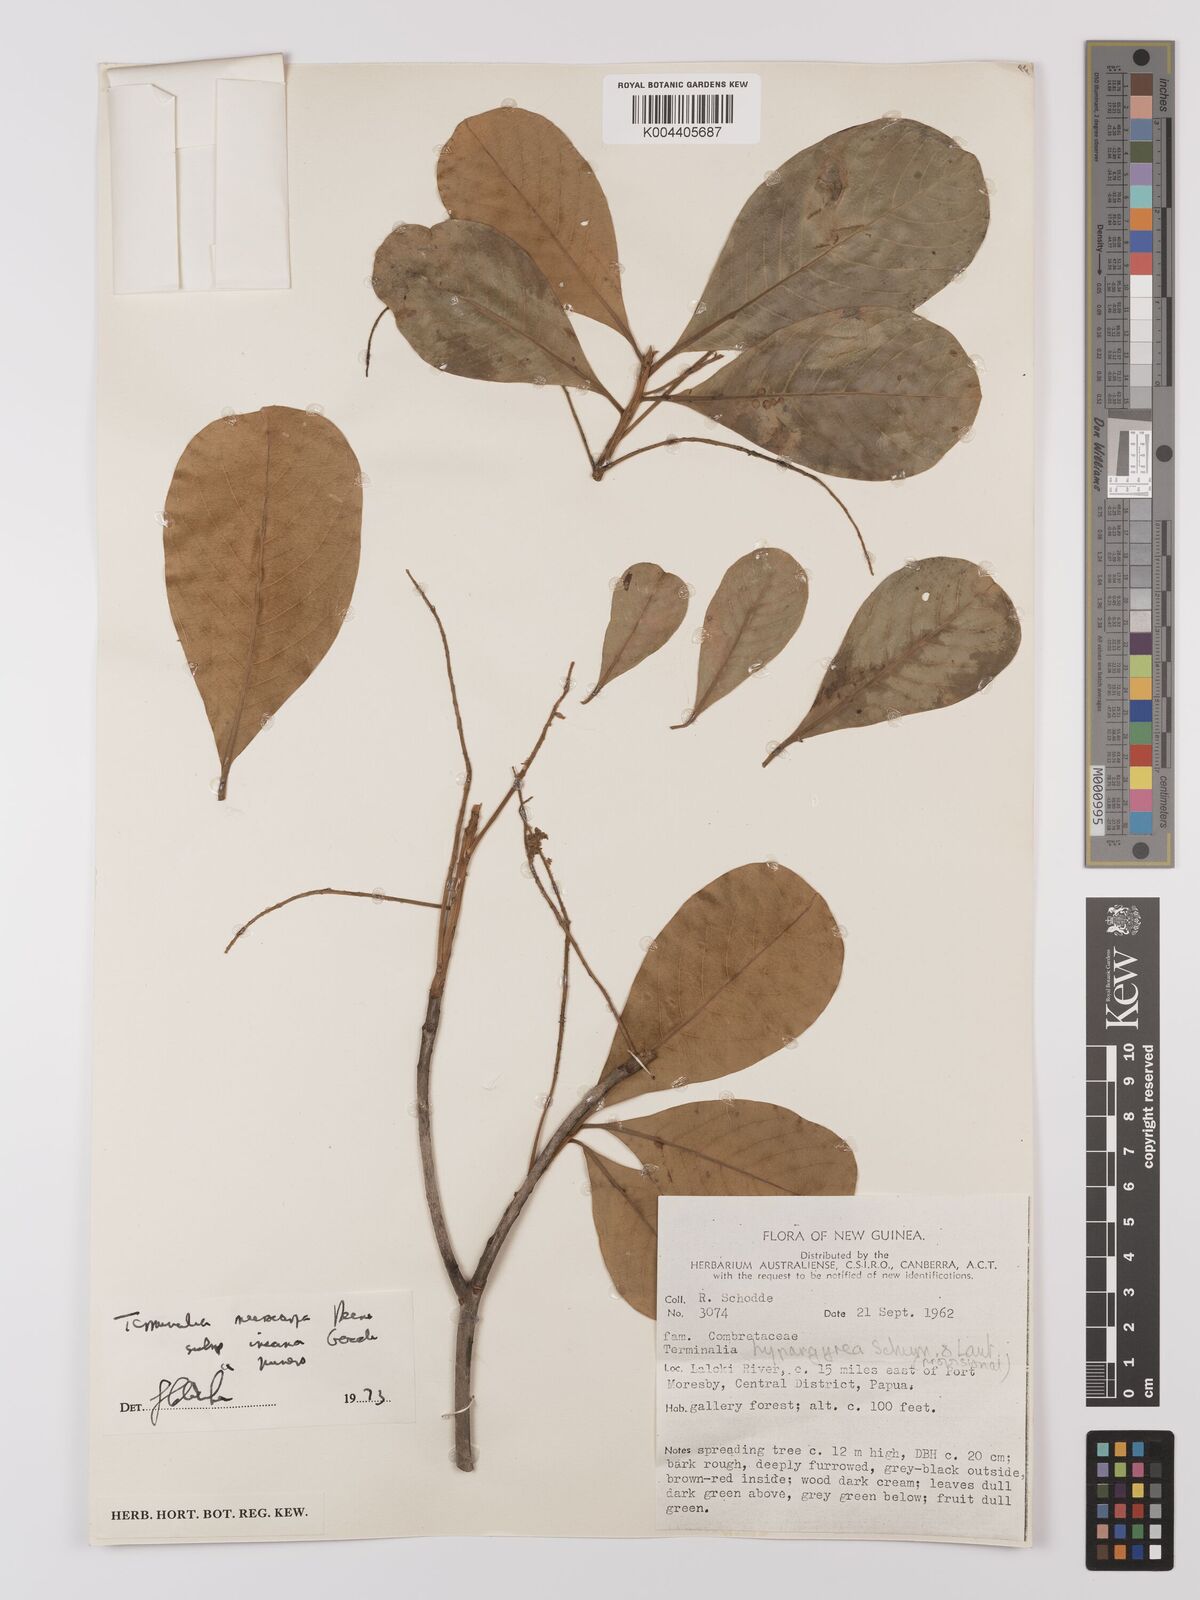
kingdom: Plantae
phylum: Tracheophyta
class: Magnoliopsida
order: Myrtales
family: Combretaceae
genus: Terminalia
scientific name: Terminalia microcarpa
